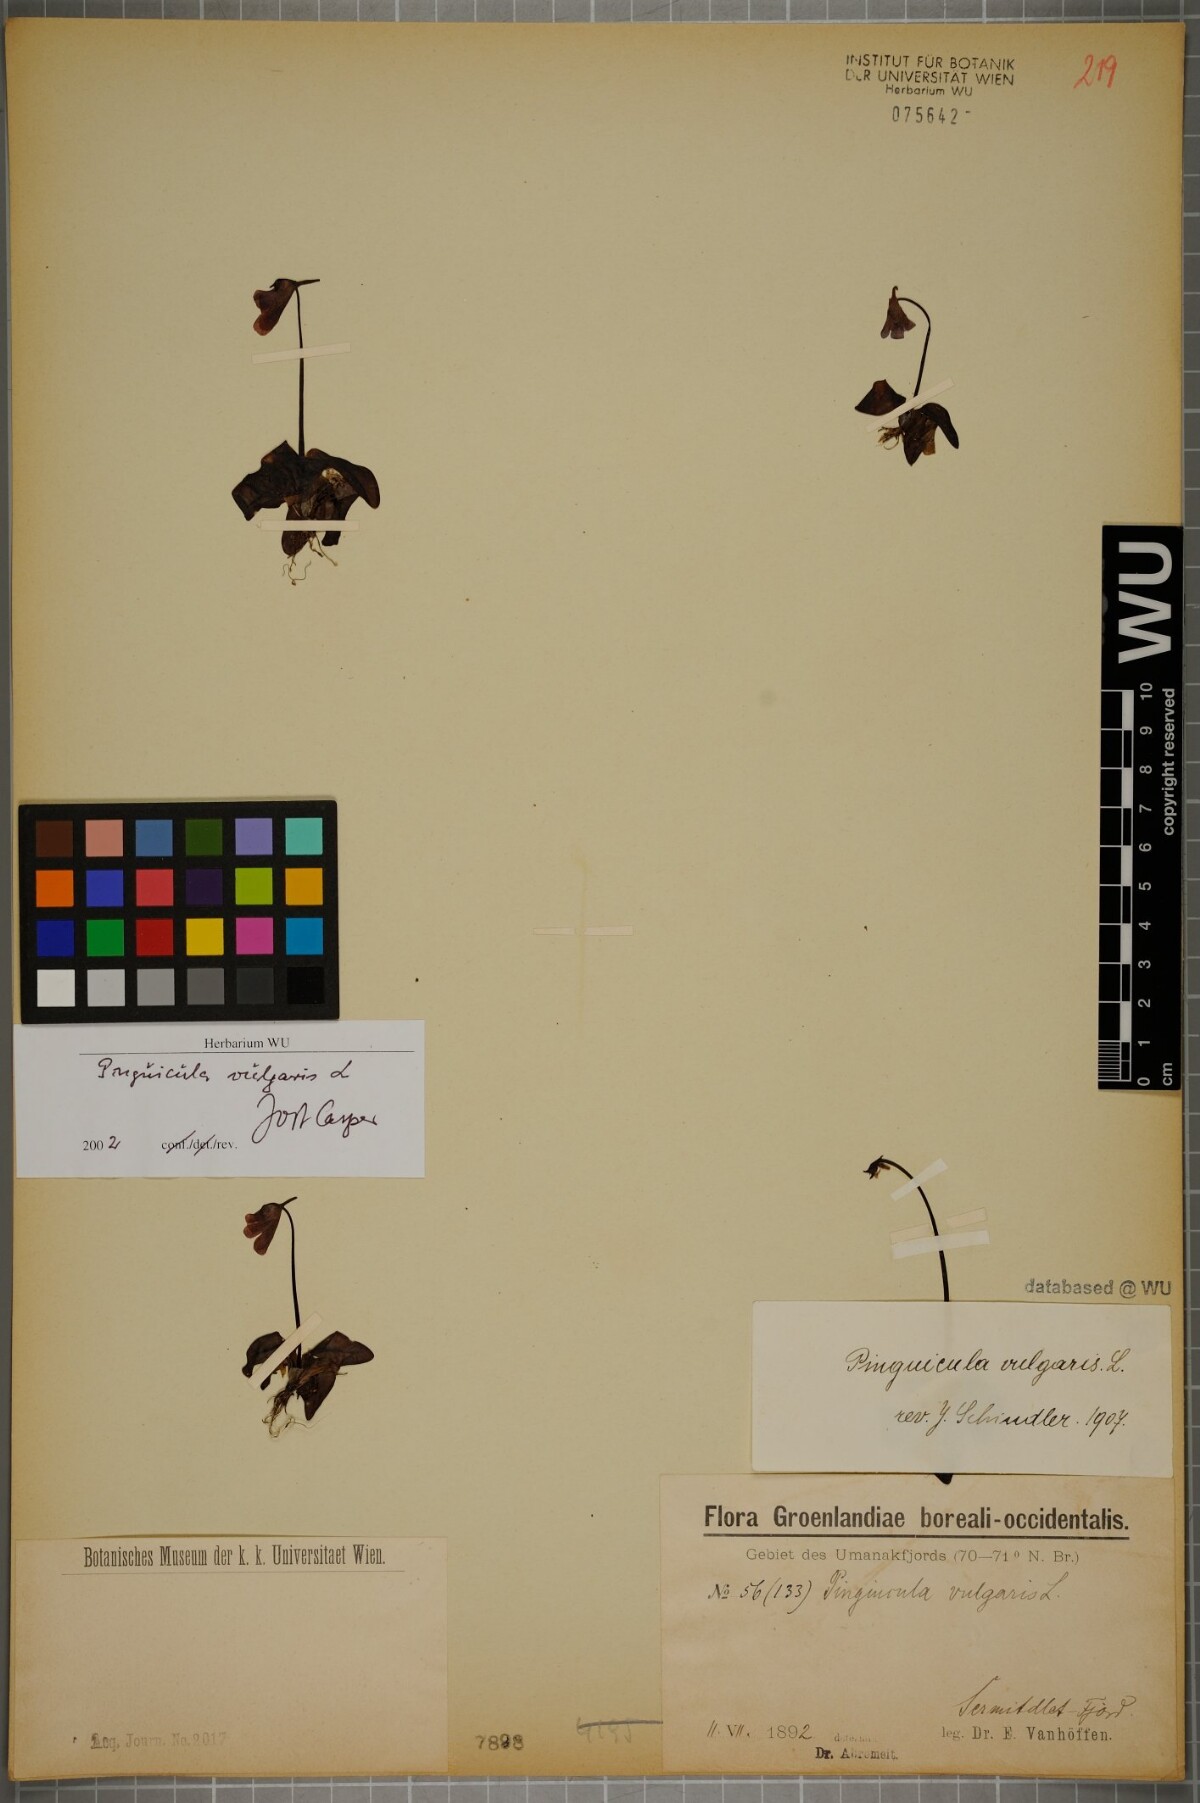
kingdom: Plantae
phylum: Tracheophyta
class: Magnoliopsida
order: Lamiales
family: Lentibulariaceae
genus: Pinguicula
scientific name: Pinguicula vulgaris
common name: Common butterwort
